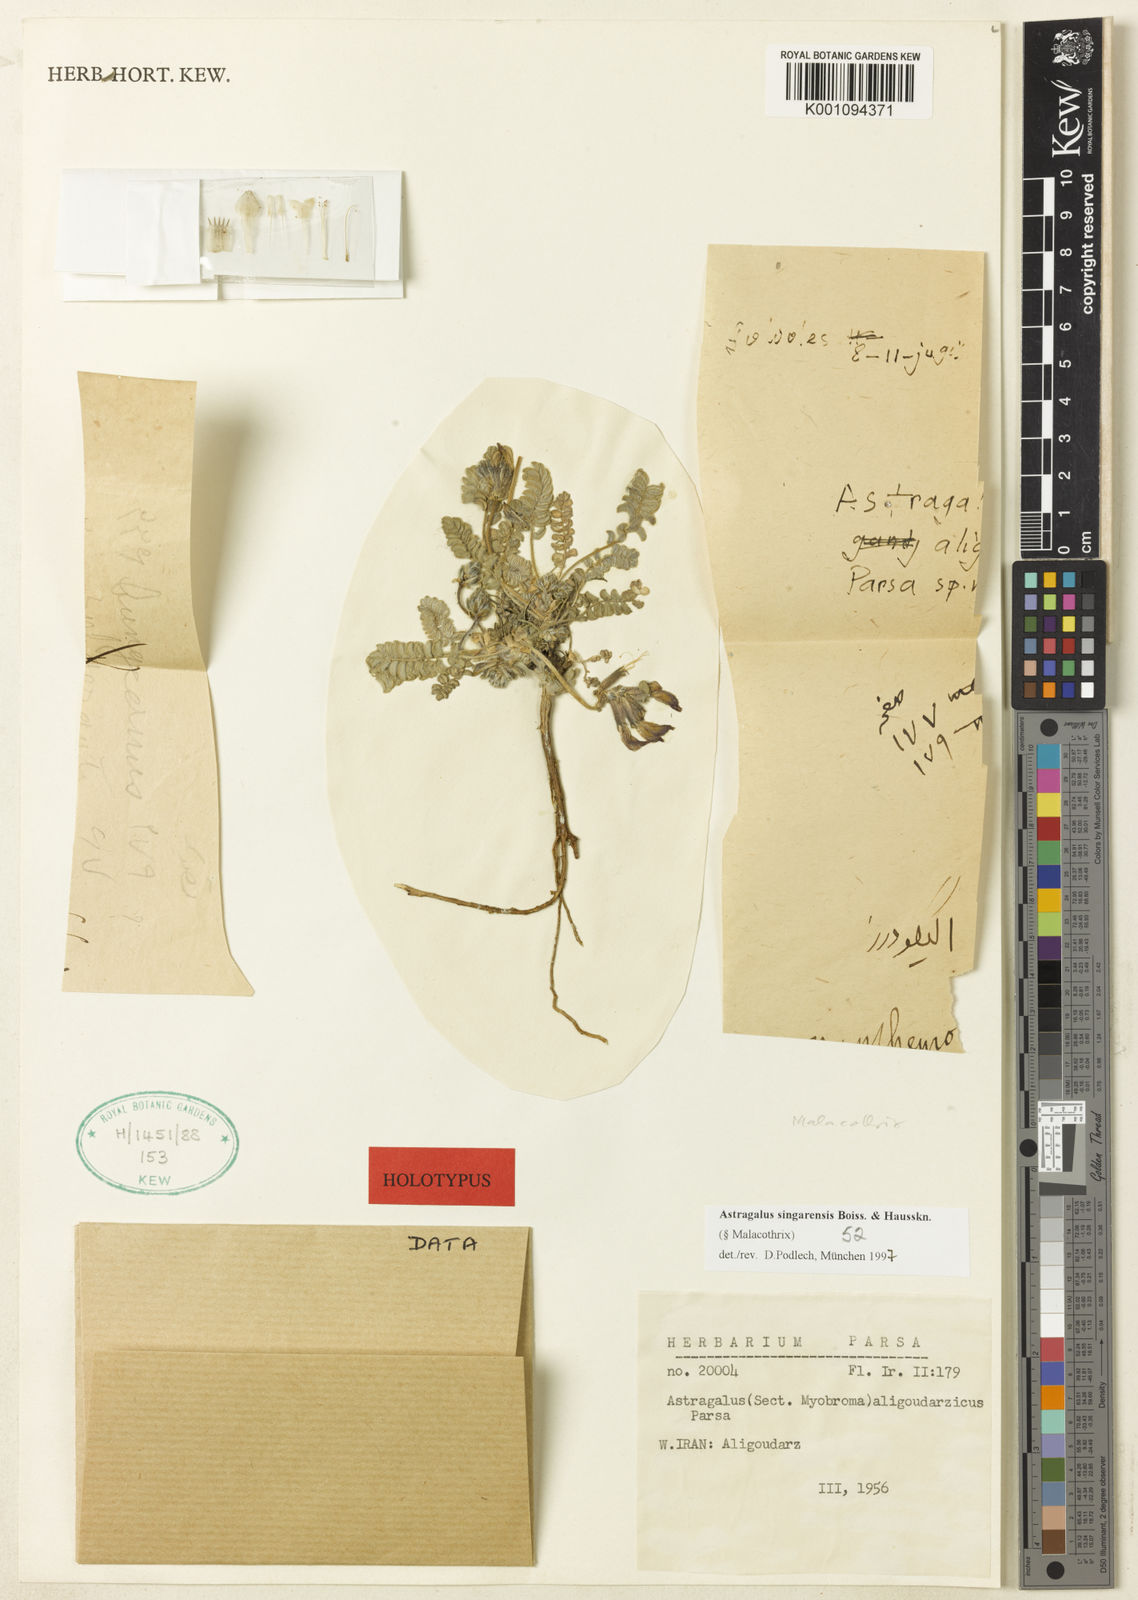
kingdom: Plantae
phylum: Tracheophyta
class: Magnoliopsida
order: Fabales
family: Fabaceae
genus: Astragalus
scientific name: Astragalus
